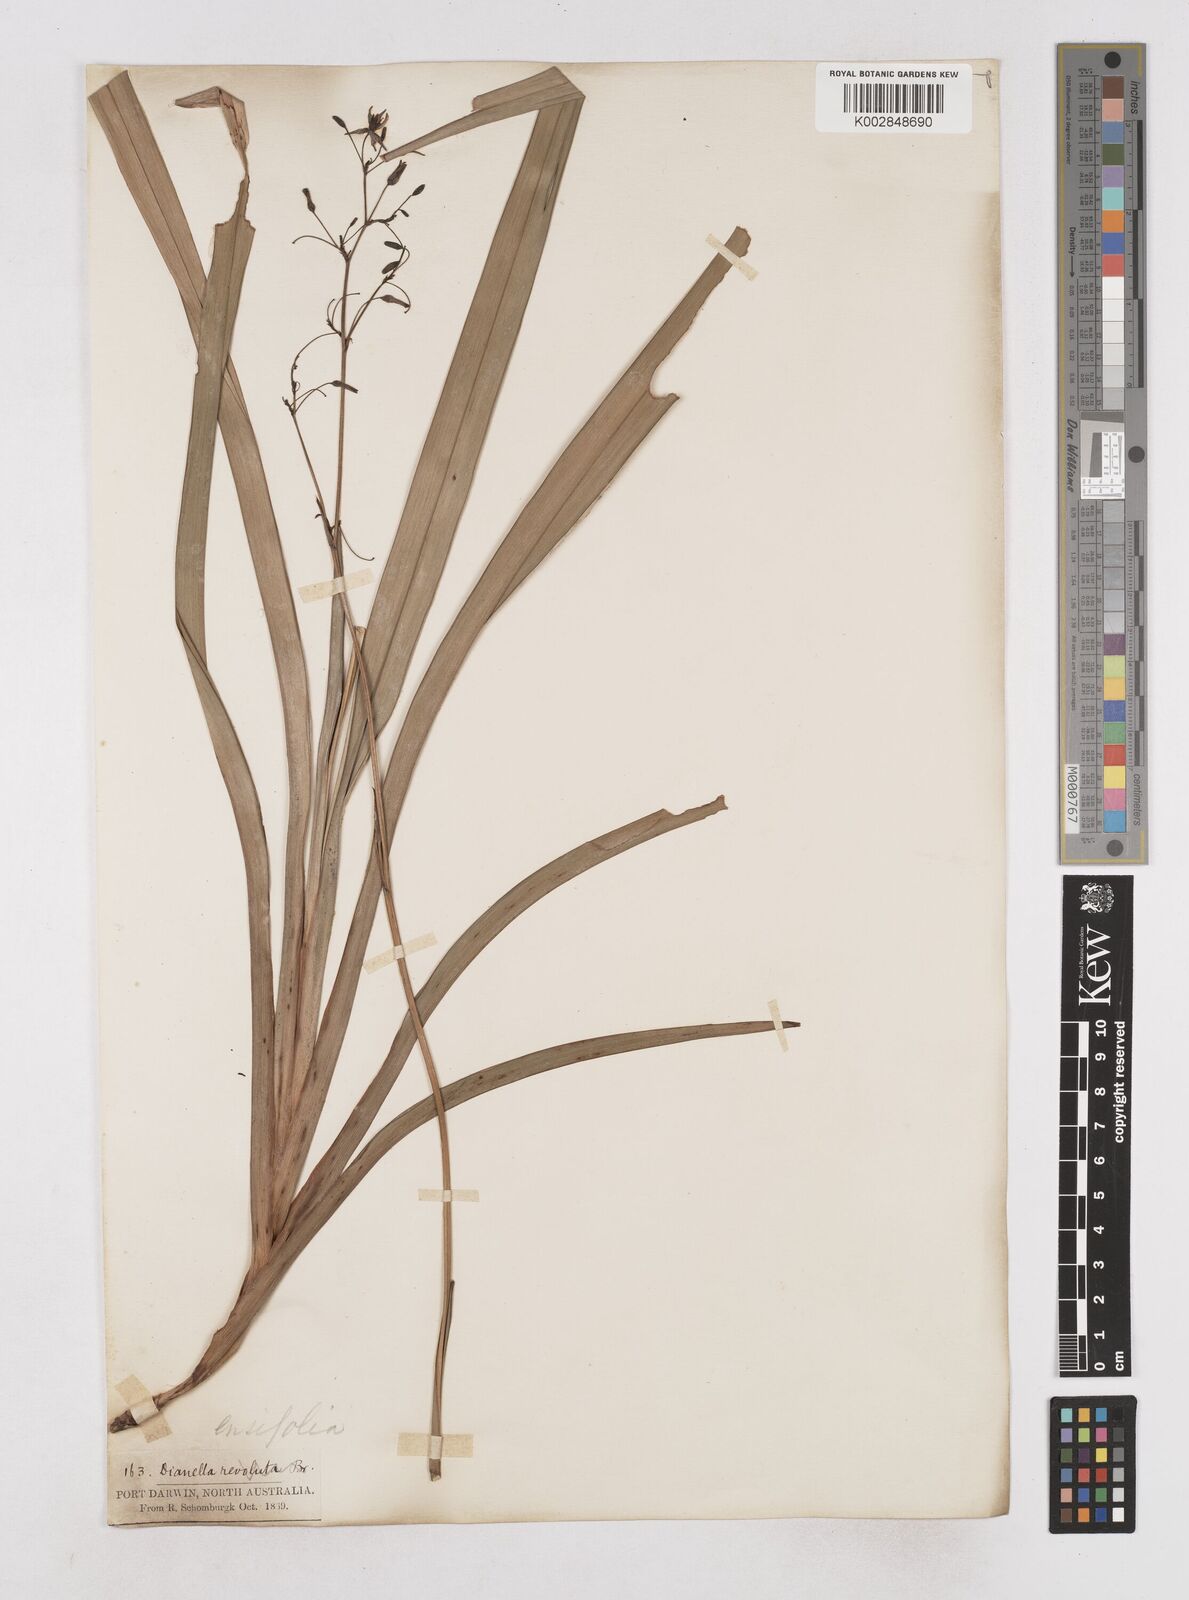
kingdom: Plantae
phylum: Tracheophyta
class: Liliopsida
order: Asparagales
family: Asphodelaceae
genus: Dianella
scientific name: Dianella ensifolia
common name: New zealand lilyplant
